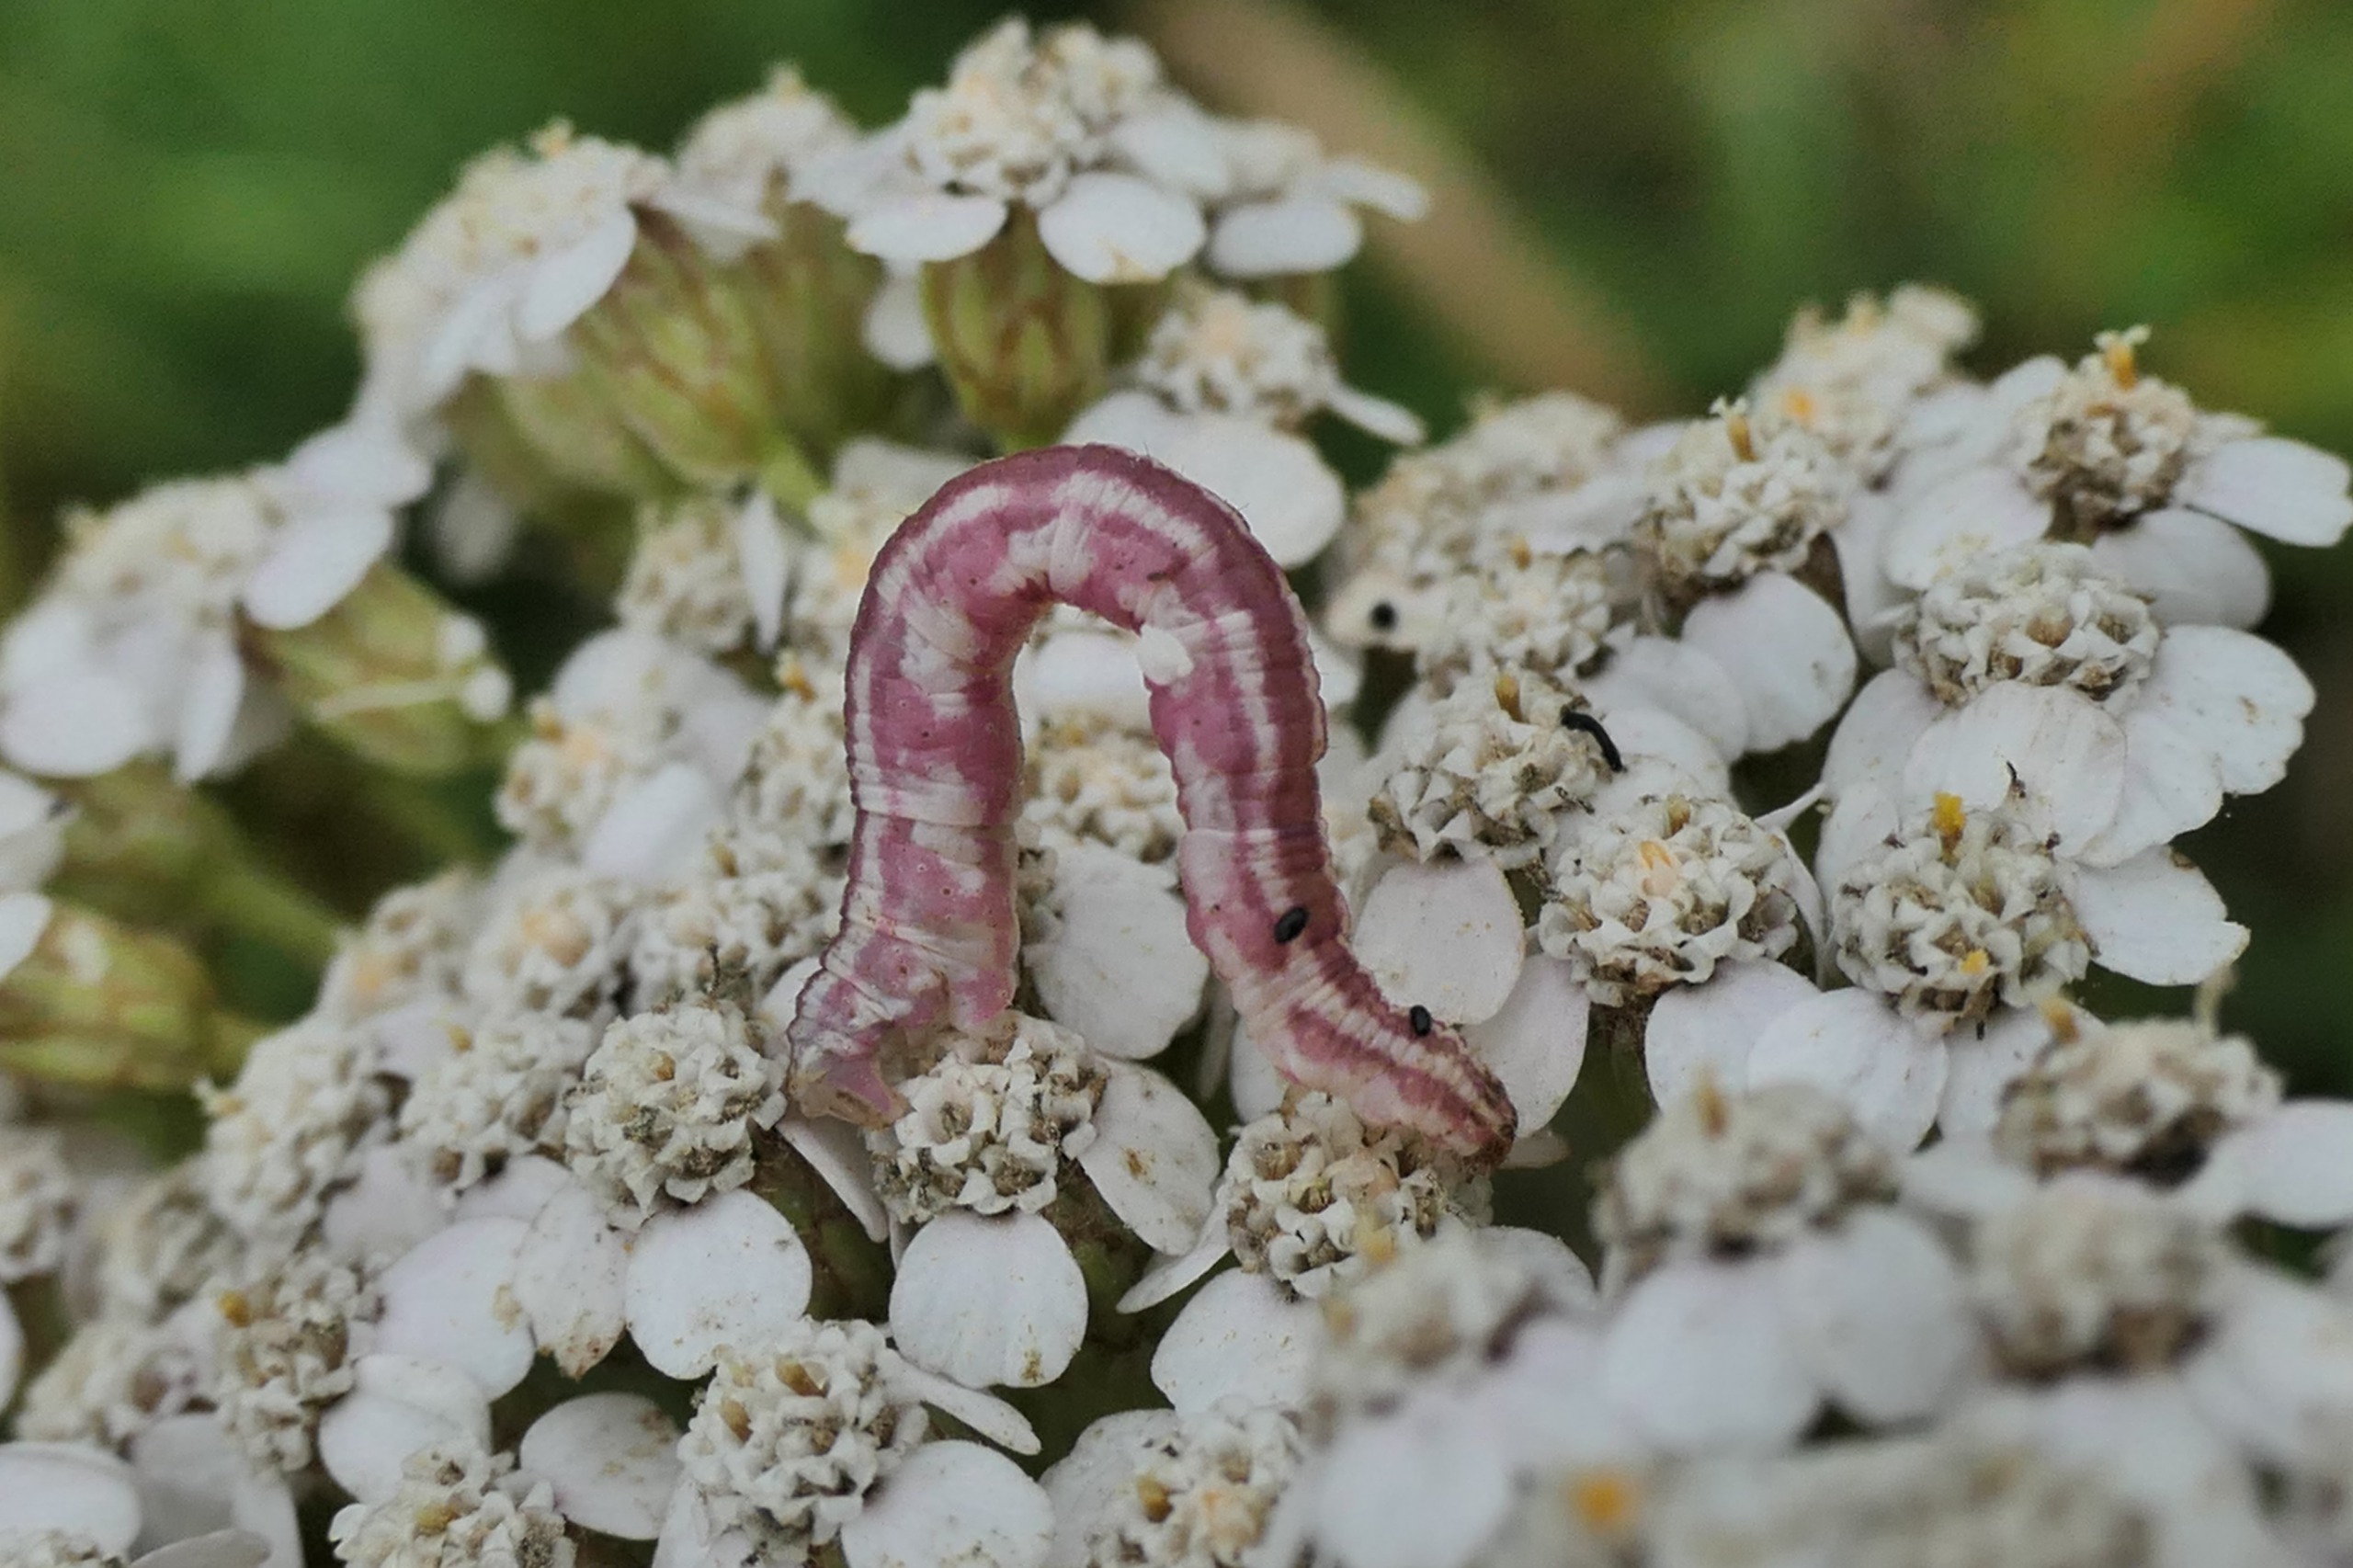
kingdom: Animalia
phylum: Arthropoda
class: Insecta
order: Lepidoptera
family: Geometridae
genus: Eupithecia
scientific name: Eupithecia centaureata
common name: Hvid dværgmåler
